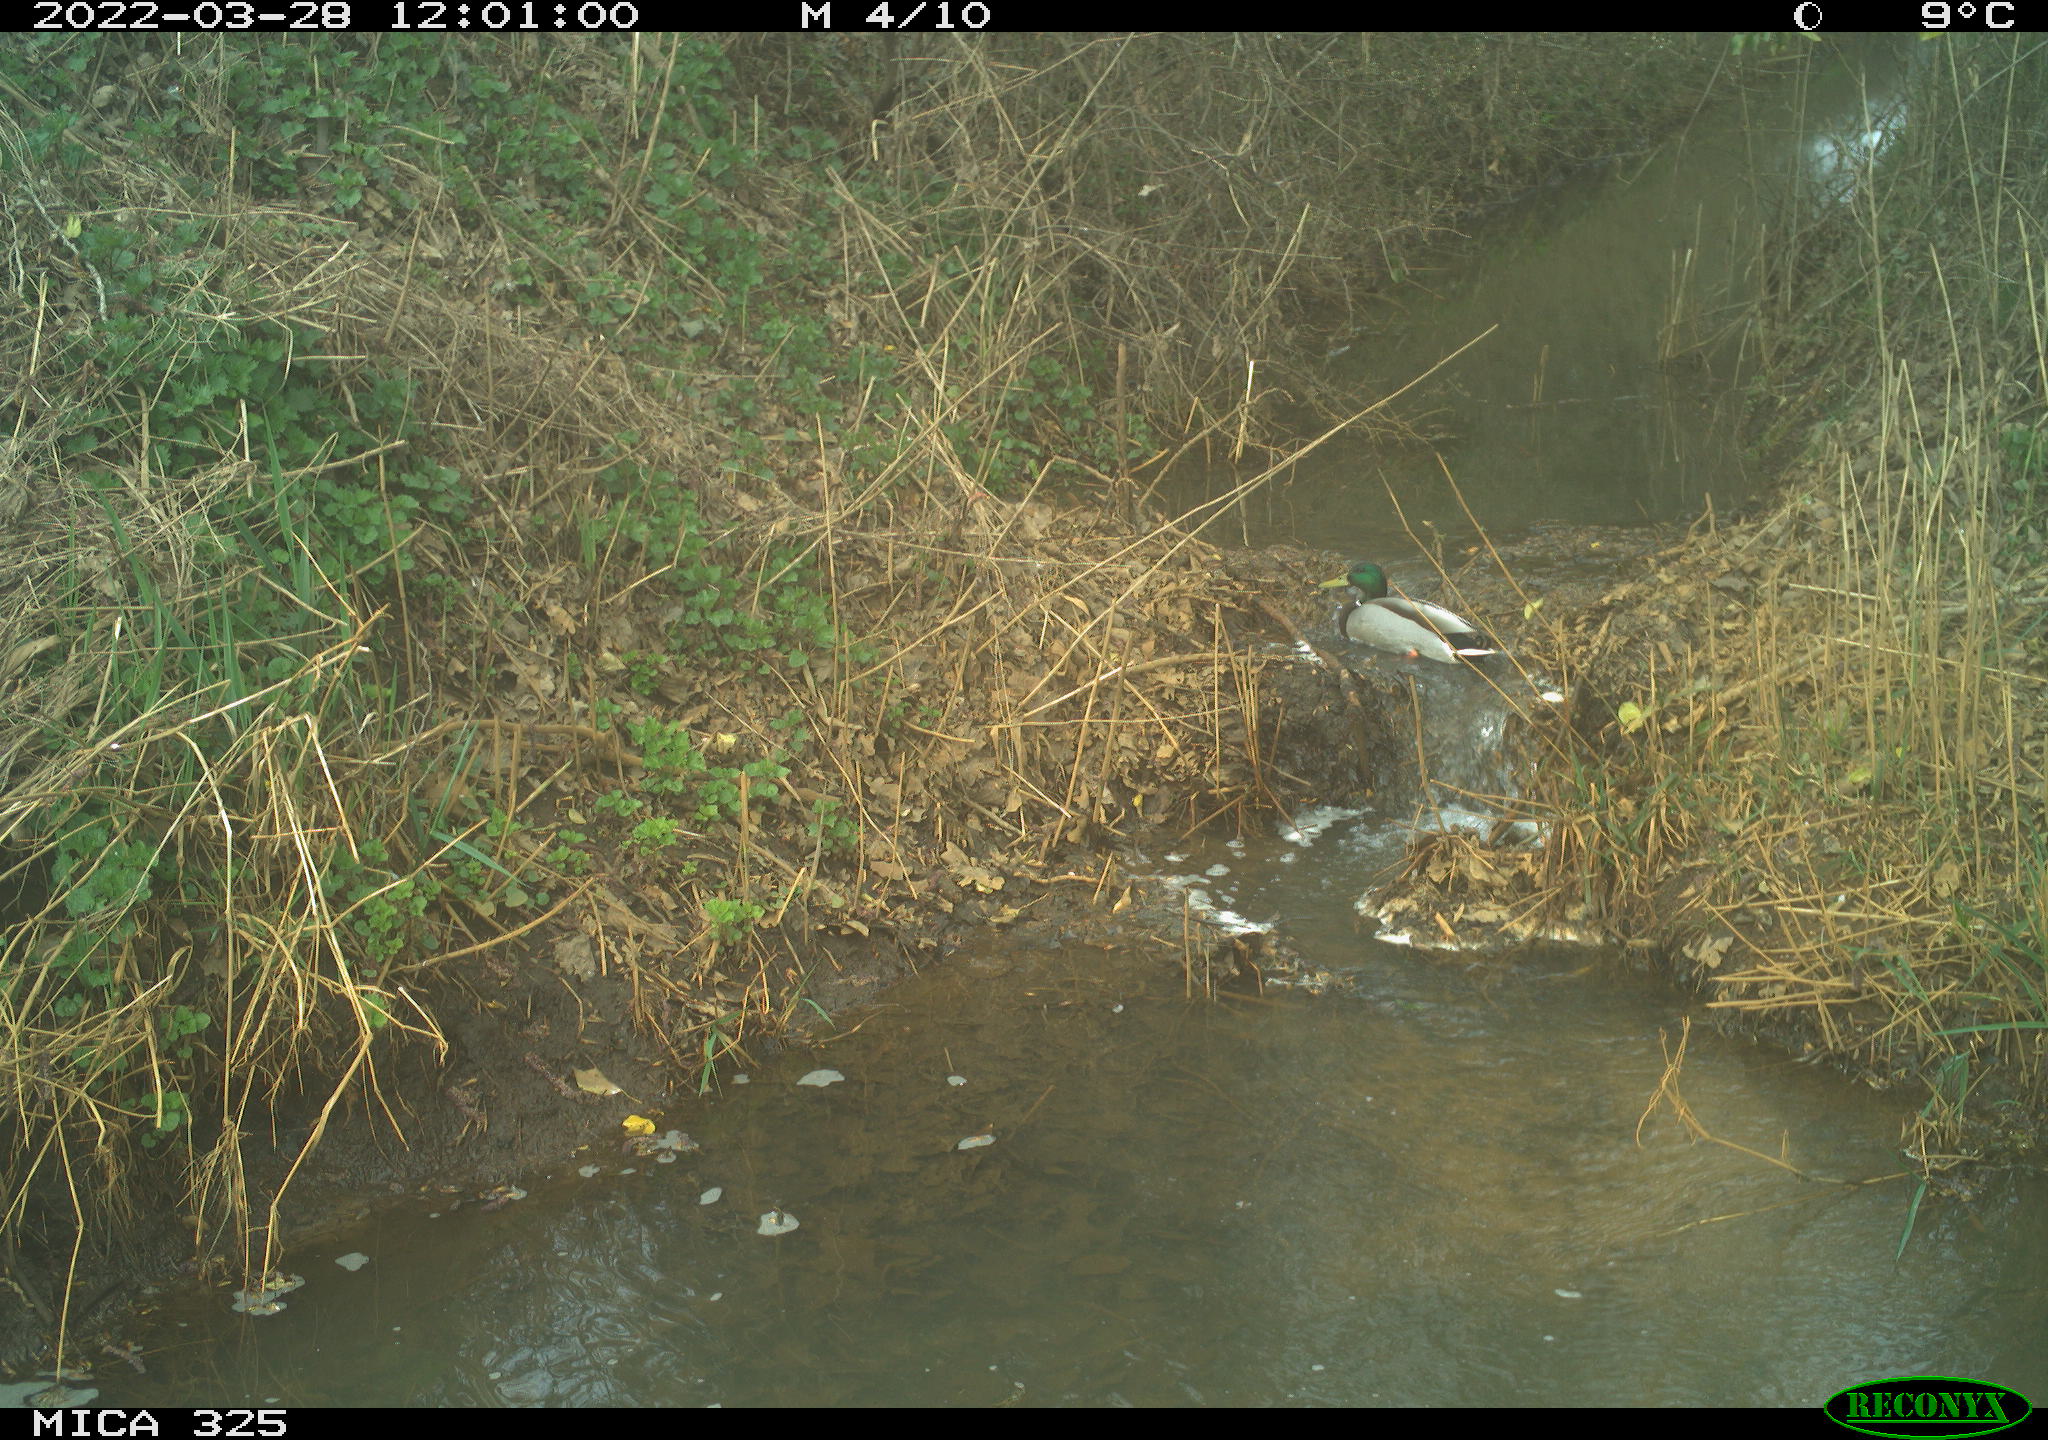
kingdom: Animalia
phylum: Chordata
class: Aves
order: Anseriformes
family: Anatidae
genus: Anas
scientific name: Anas platyrhynchos
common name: Mallard
